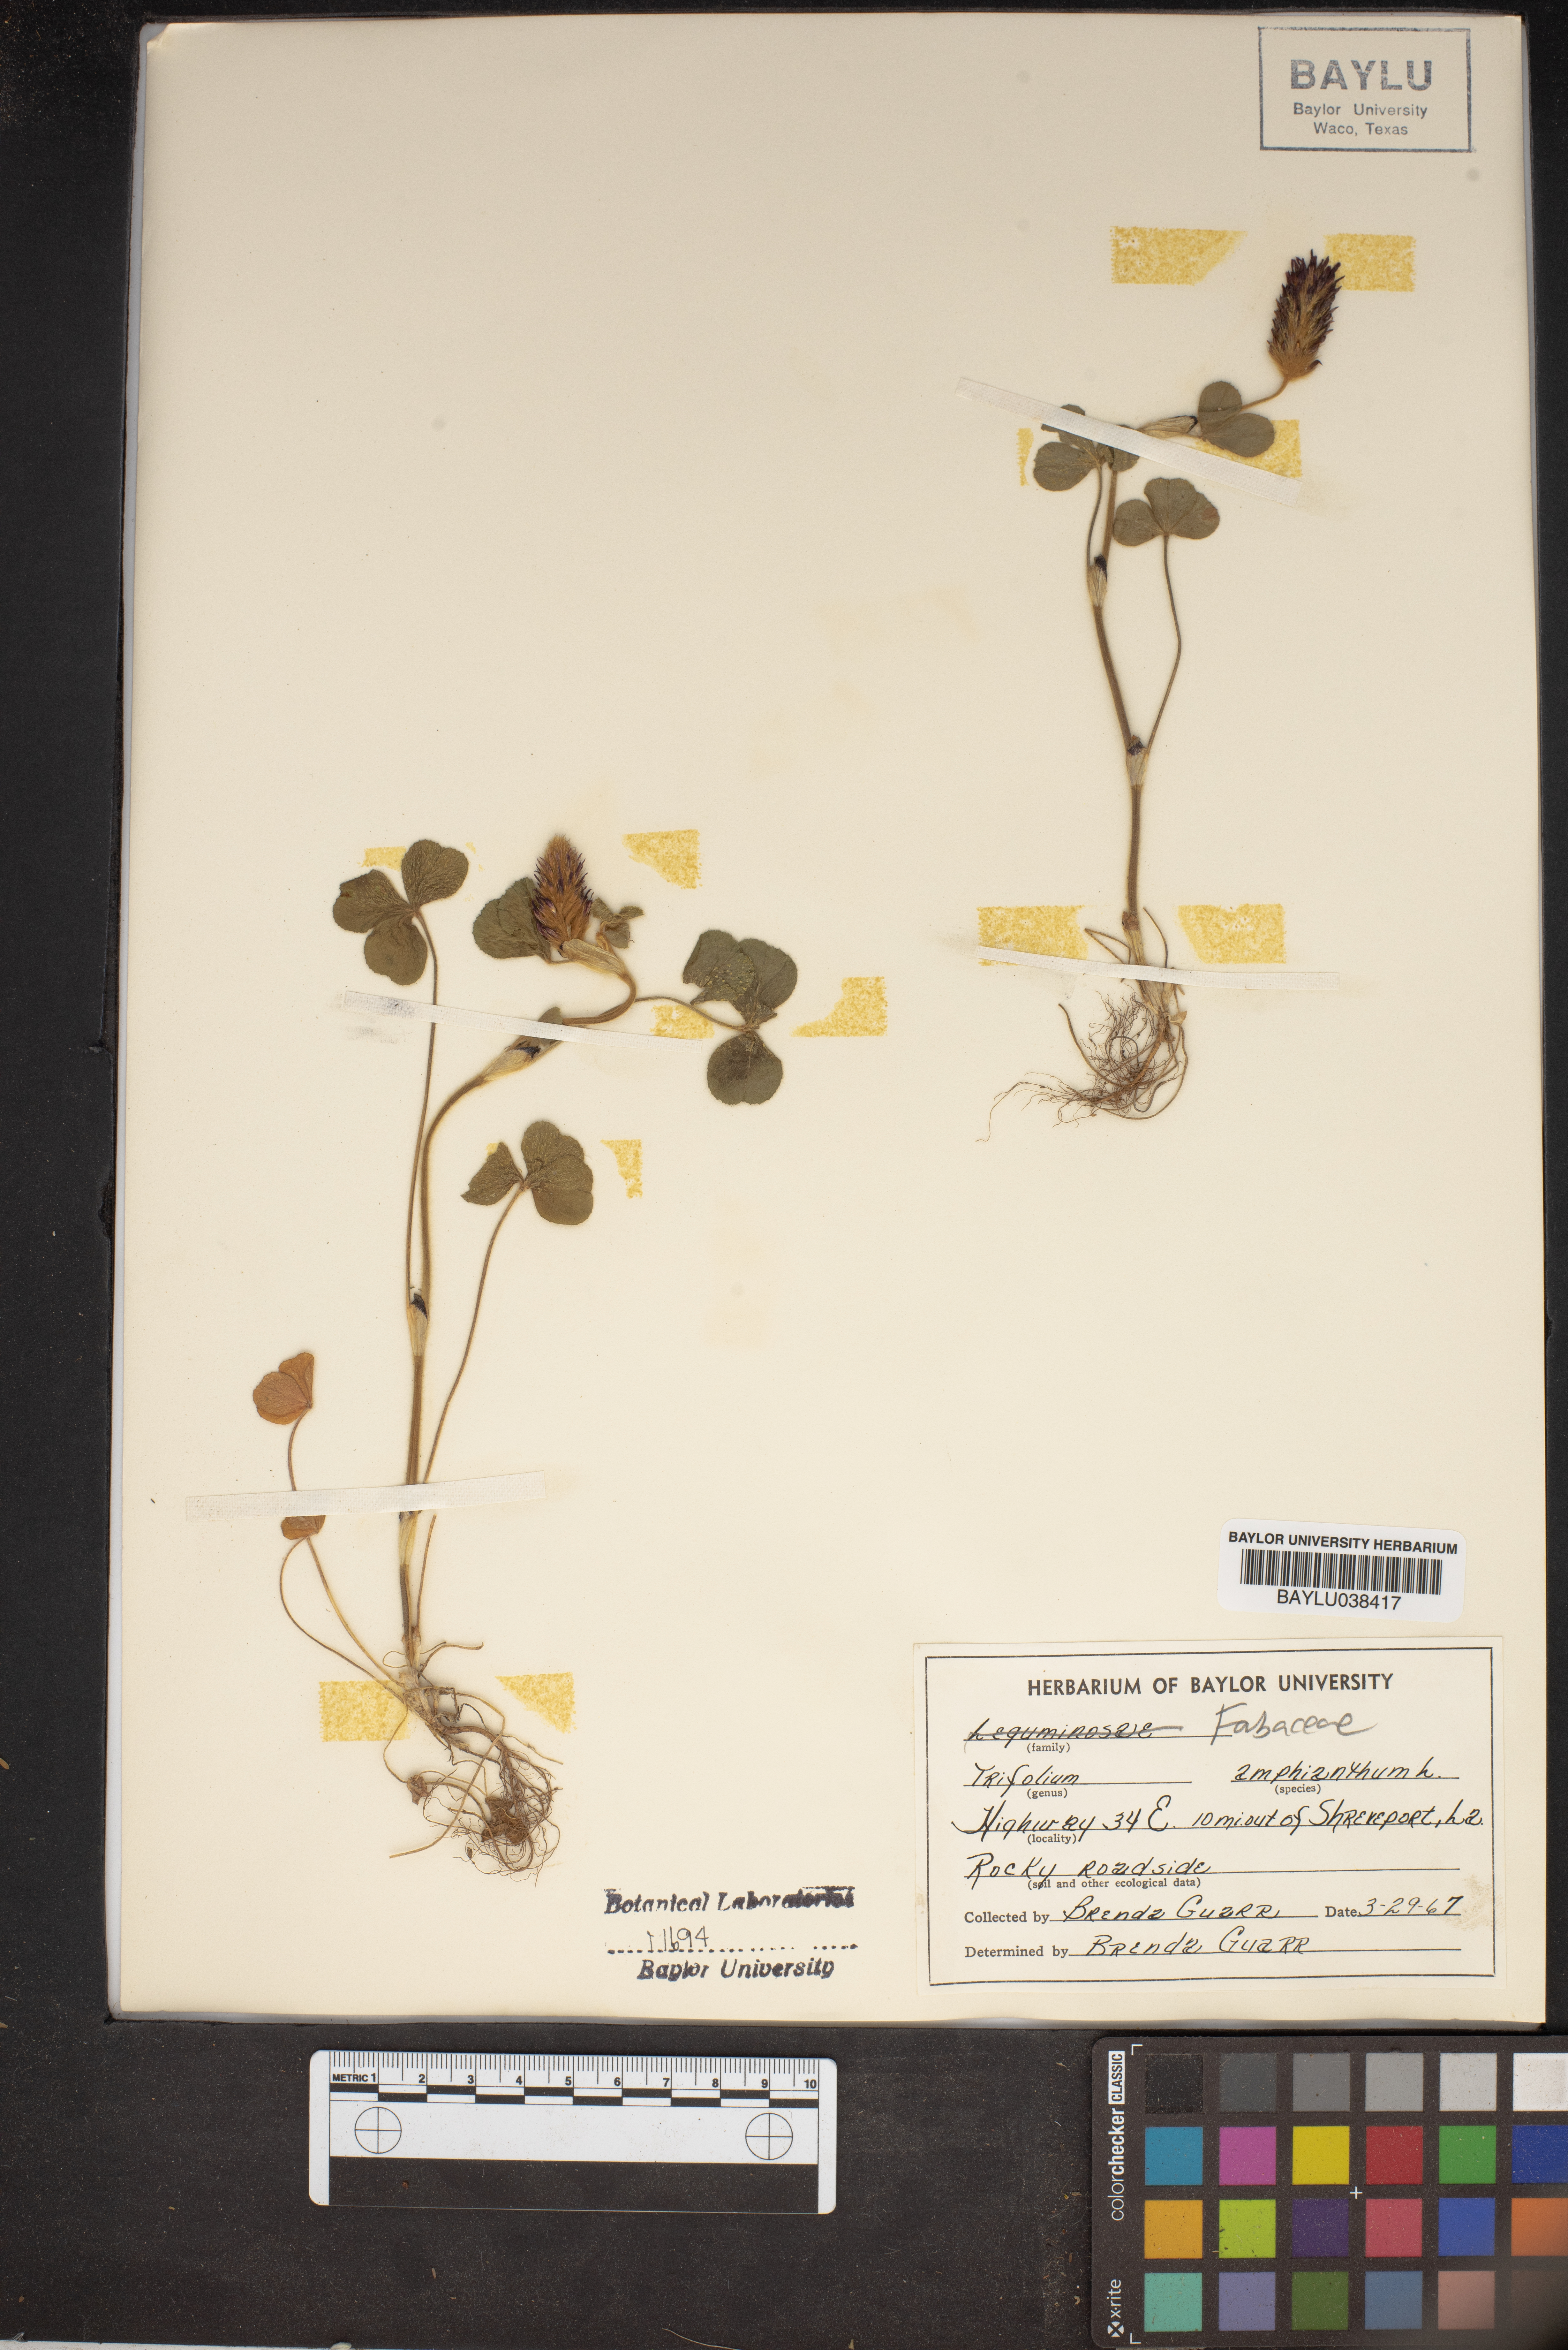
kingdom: Plantae
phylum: Tracheophyta
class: Magnoliopsida
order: Fabales
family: Fabaceae
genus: Trifolium
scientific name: Trifolium amphianthum
